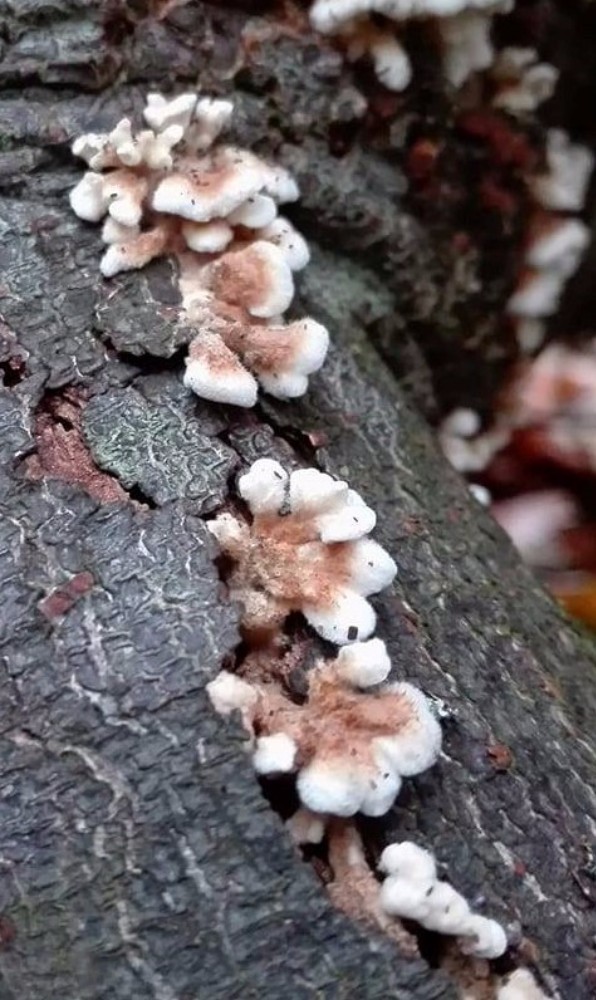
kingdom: Fungi
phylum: Basidiomycota
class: Agaricomycetes
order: Amylocorticiales
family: Amylocorticiaceae
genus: Plicaturopsis
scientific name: Plicaturopsis crispa
